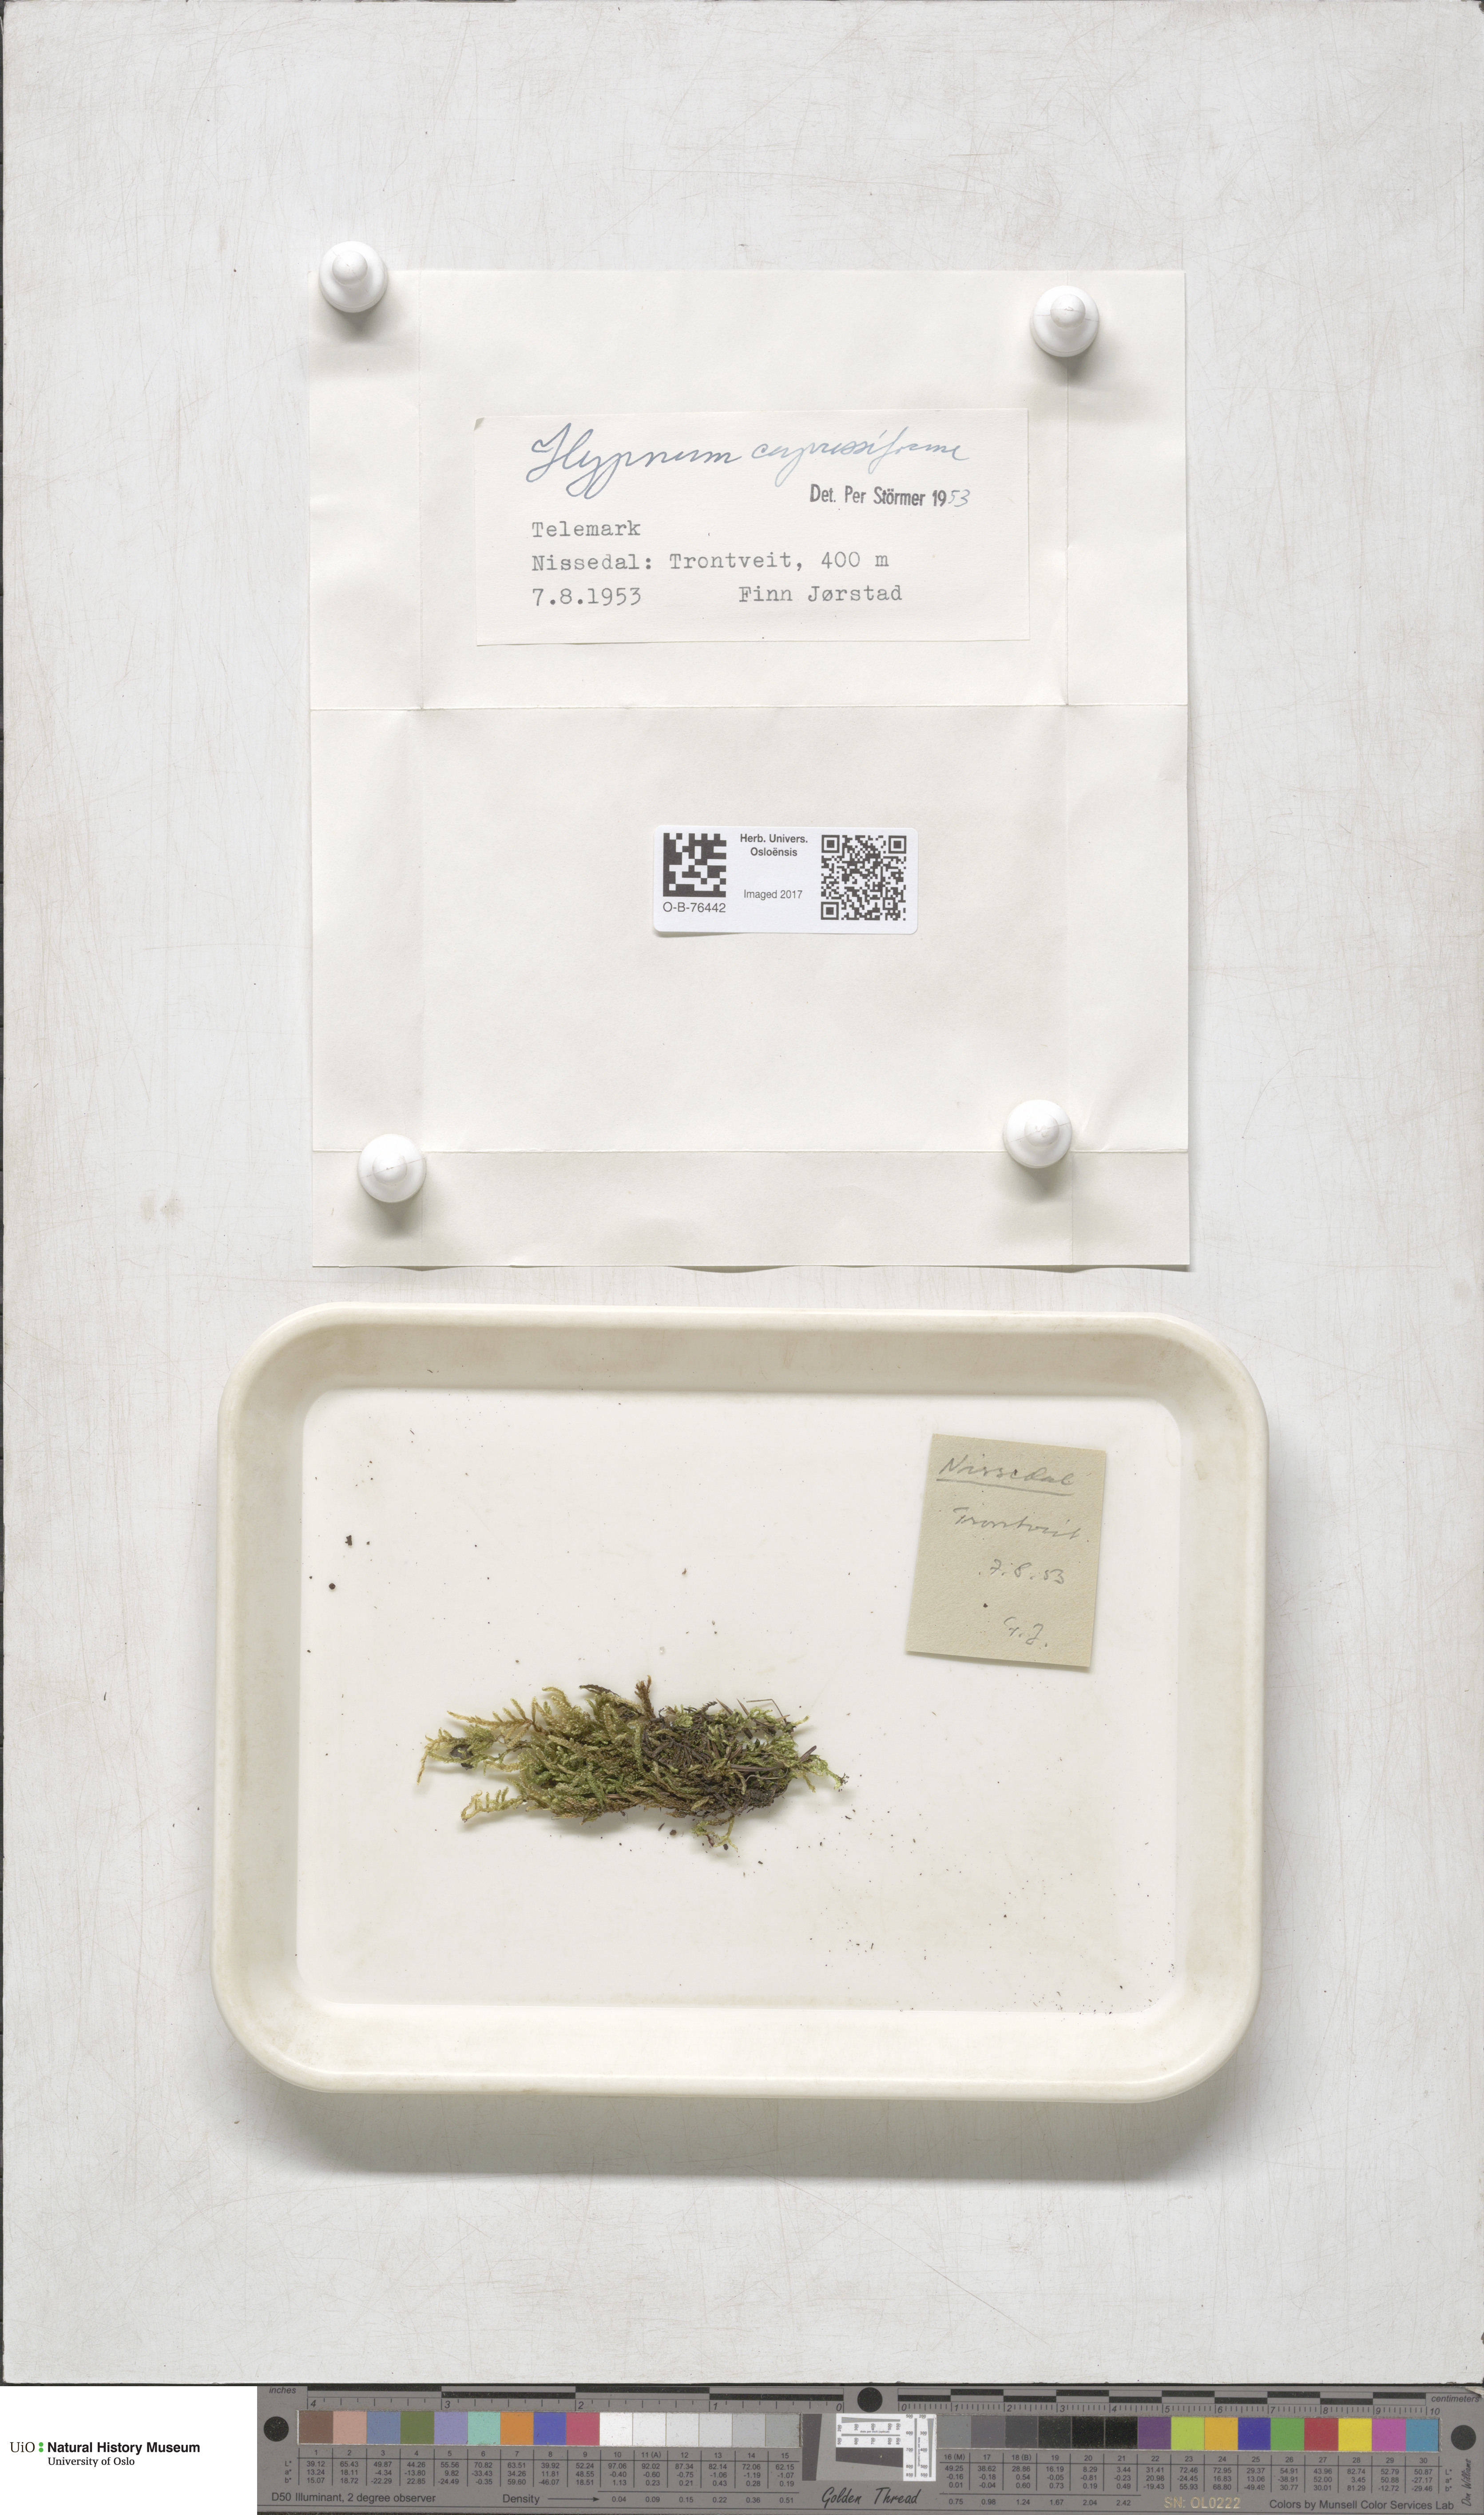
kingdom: Plantae
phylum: Bryophyta
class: Bryopsida
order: Hypnales
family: Hypnaceae
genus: Hypnum
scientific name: Hypnum cupressiforme
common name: Cypress-leaved plait-moss
